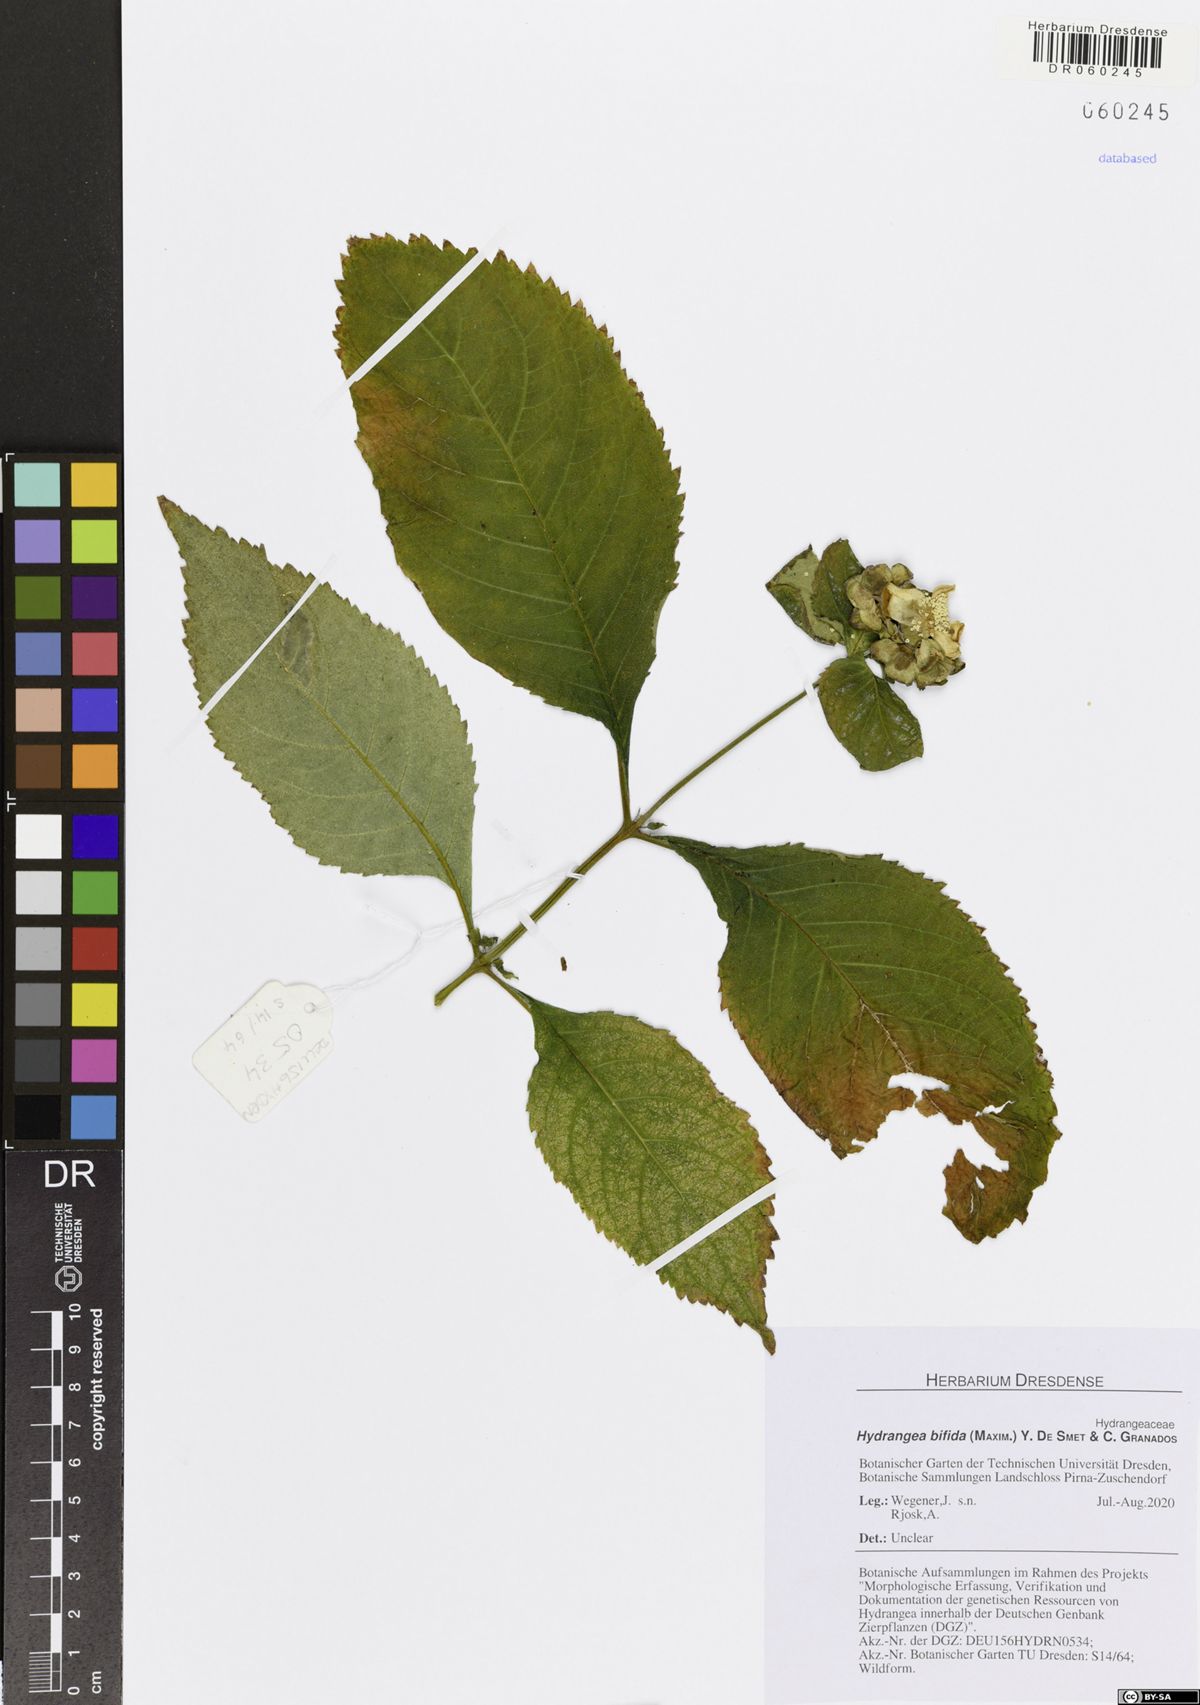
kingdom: Plantae
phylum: Tracheophyta
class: Magnoliopsida
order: Cornales
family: Hydrangeaceae
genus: Hydrangea
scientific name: Hydrangea bifida
